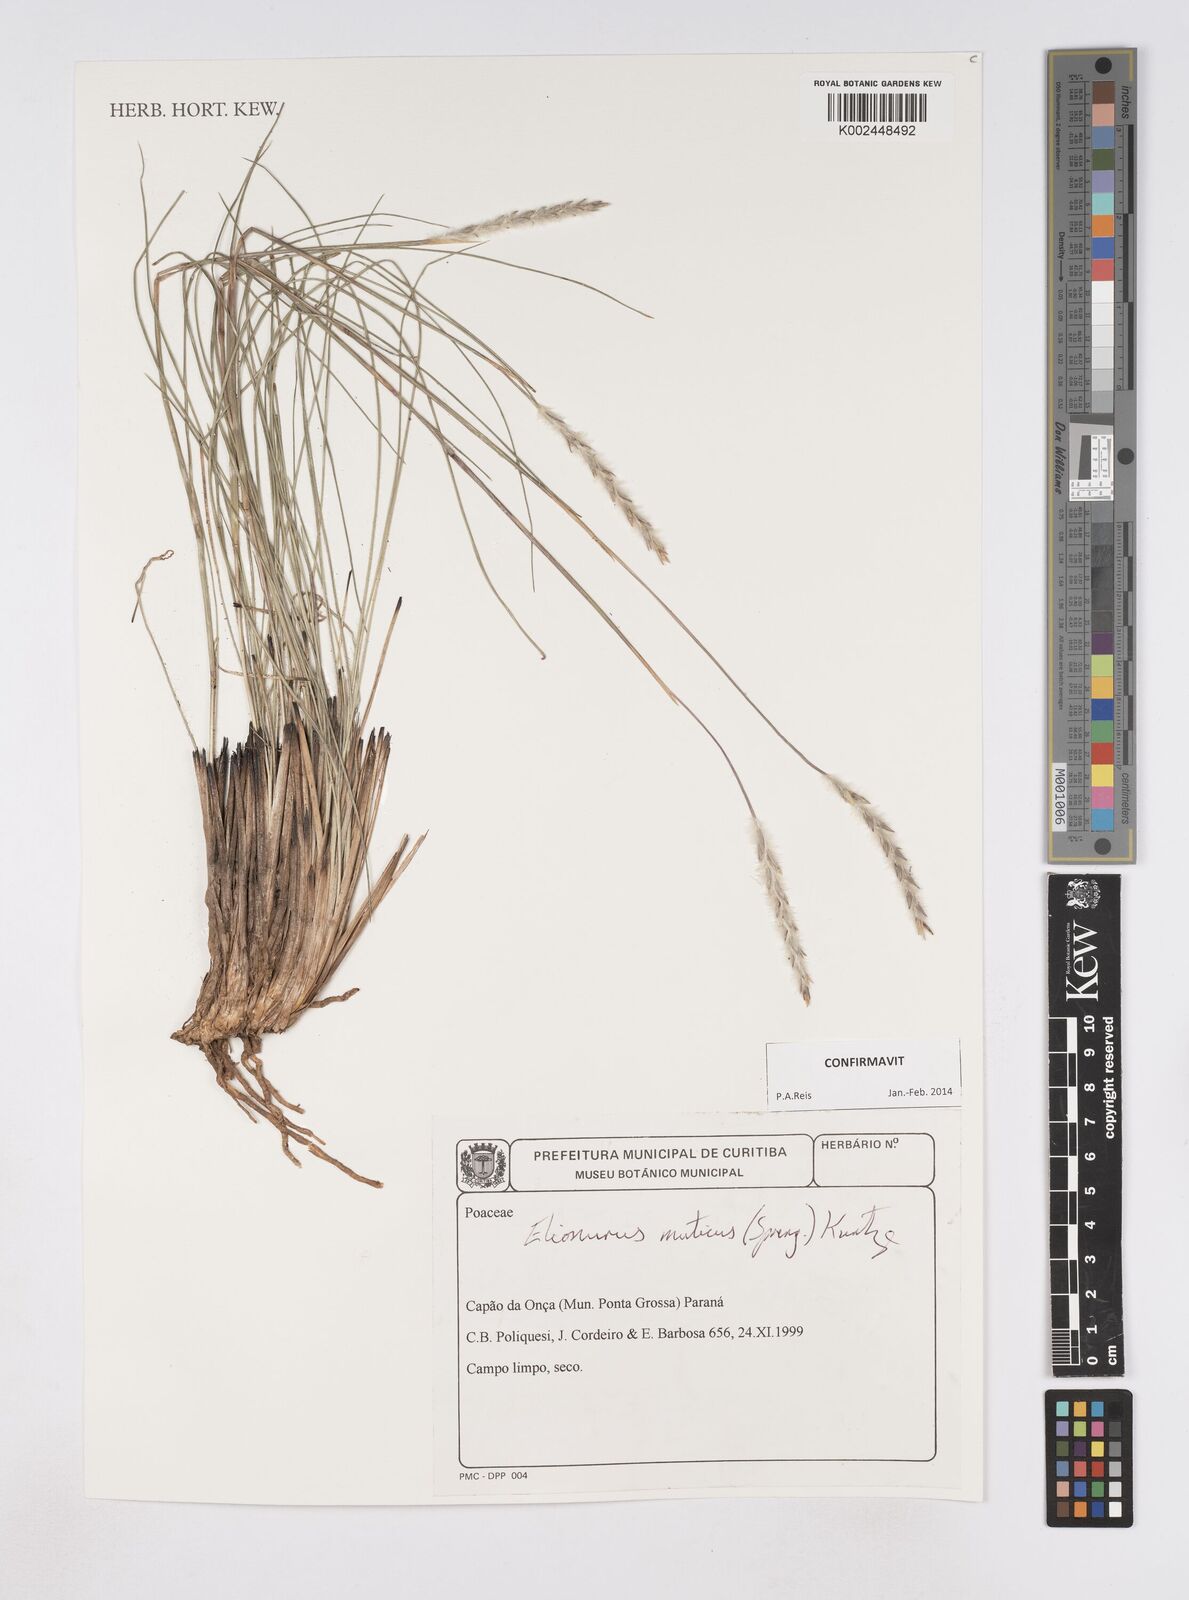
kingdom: Plantae
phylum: Tracheophyta
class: Liliopsida
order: Poales
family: Poaceae
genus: Elionurus
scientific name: Elionurus muticus
